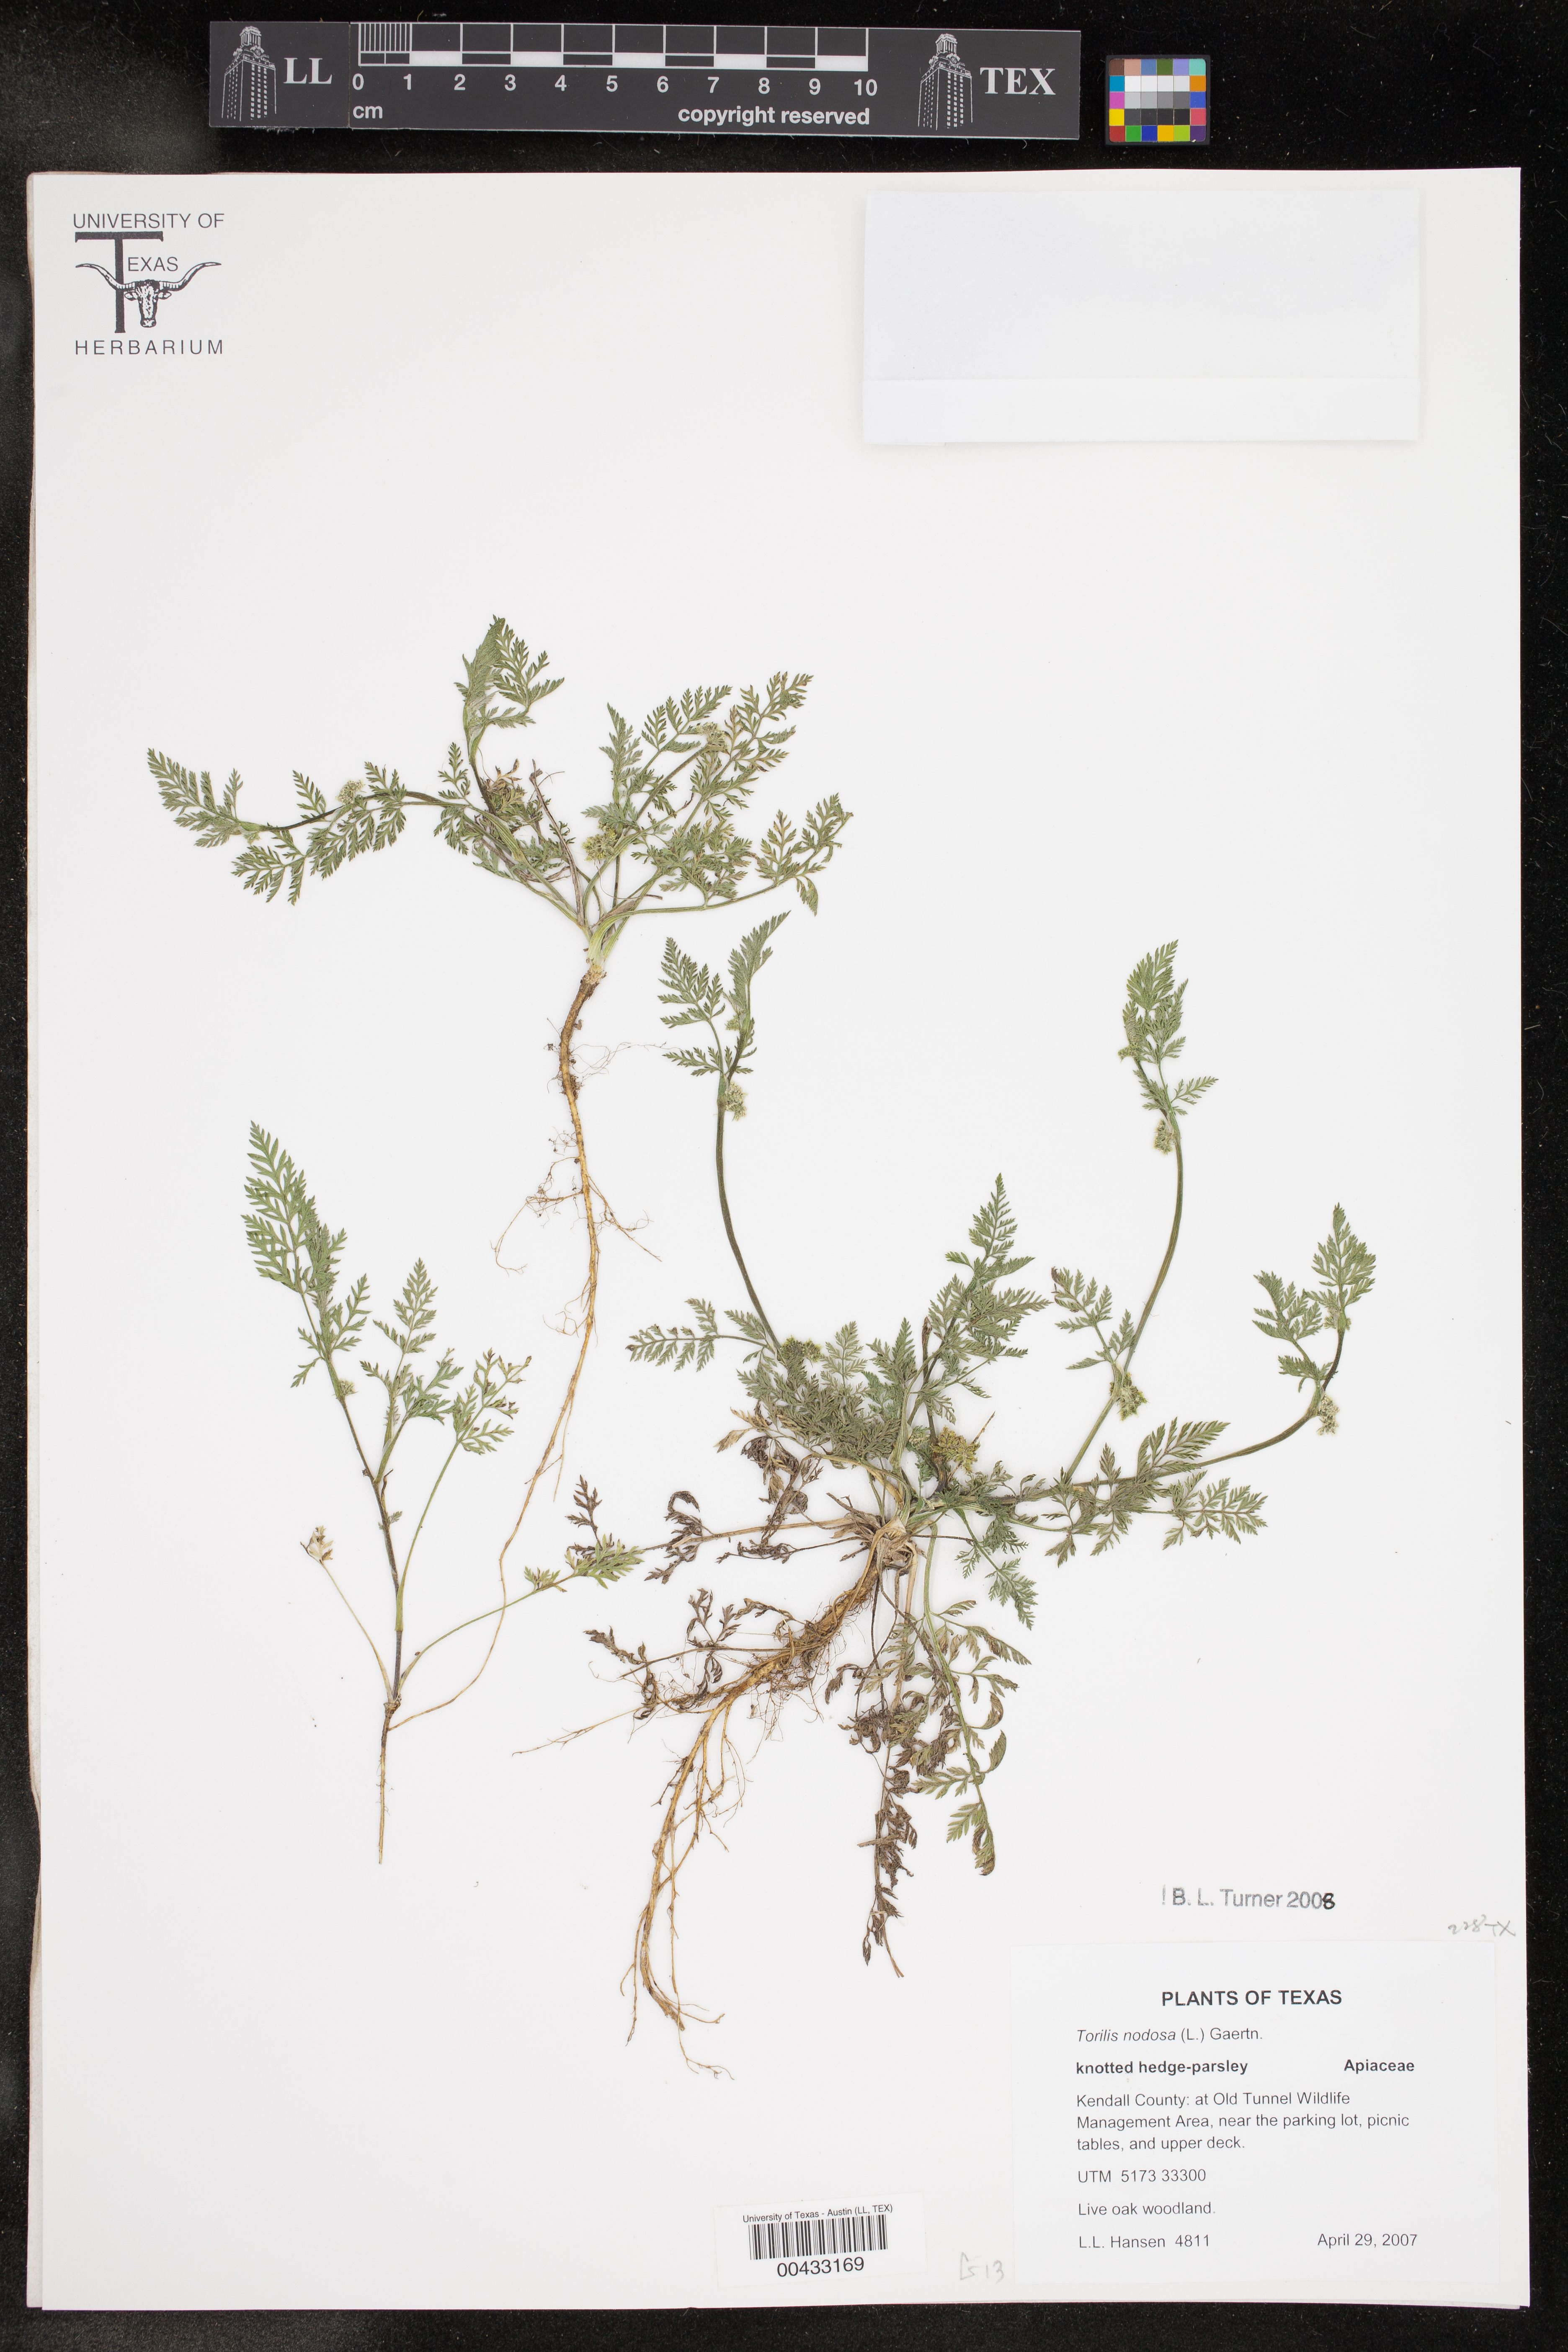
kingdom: Plantae
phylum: Tracheophyta
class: Magnoliopsida
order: Apiales
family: Apiaceae
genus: Torilis
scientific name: Torilis nodosa
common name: Knotted hedge-parsley
